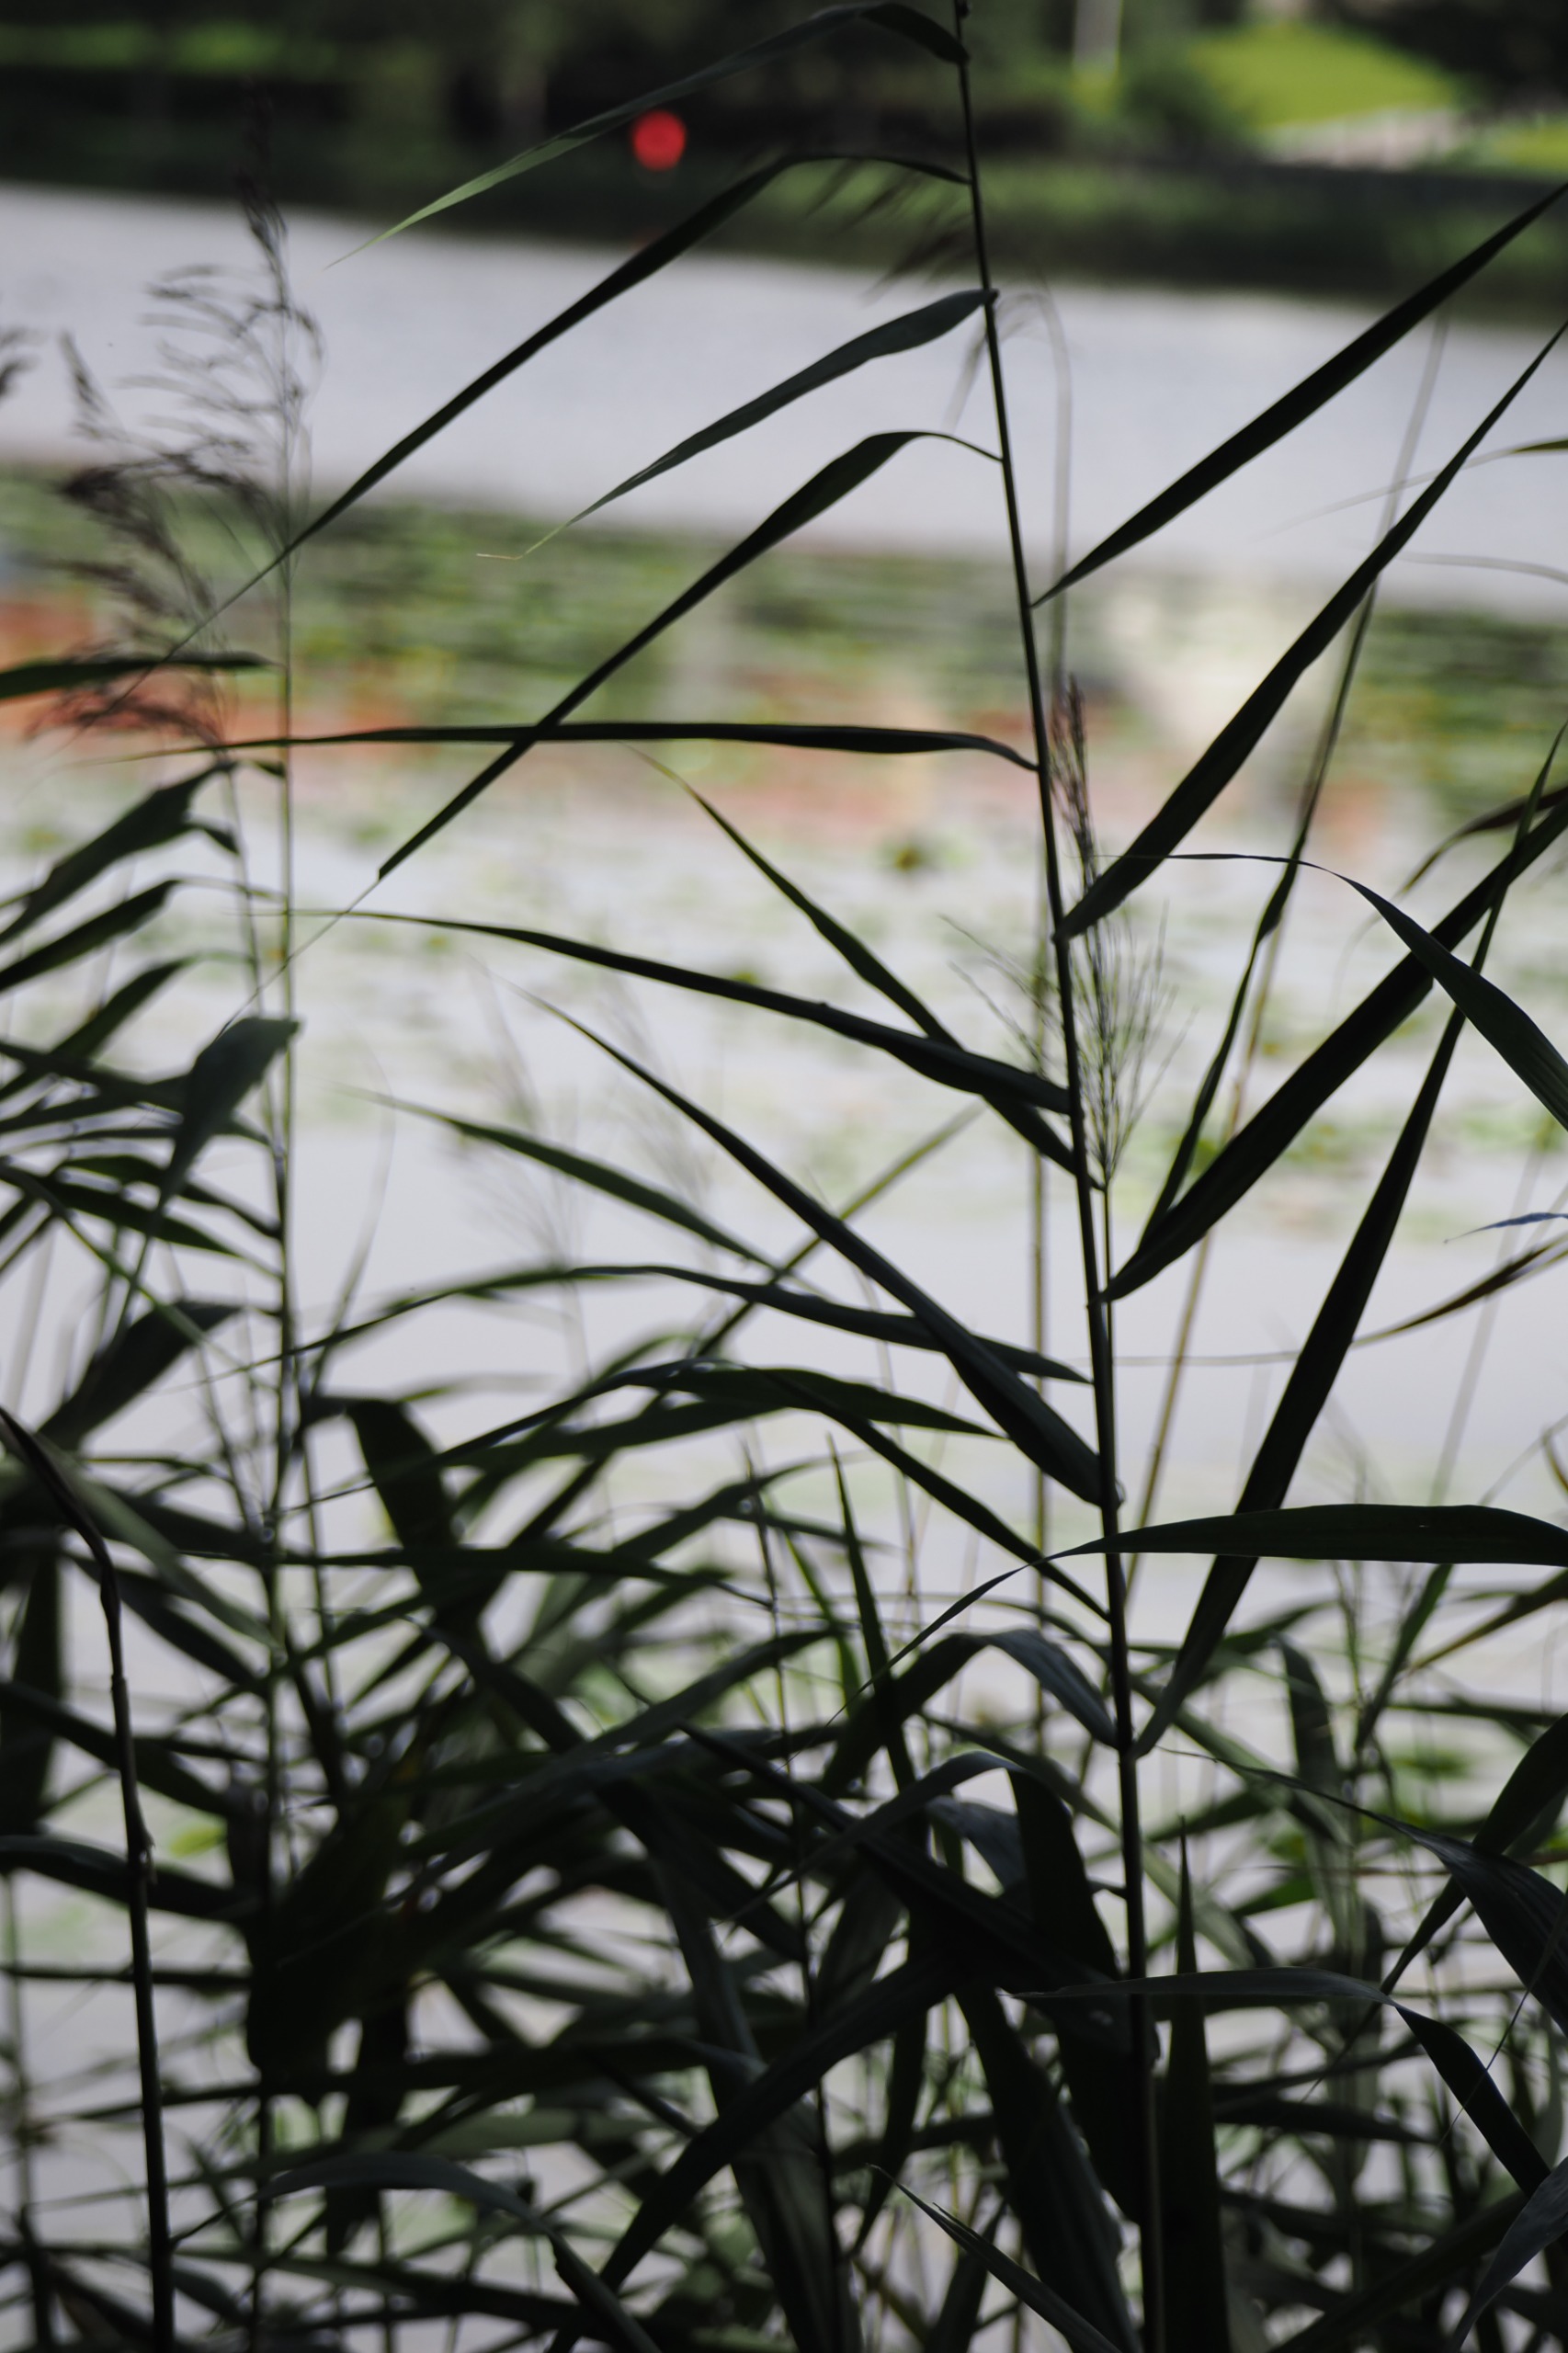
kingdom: Plantae
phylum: Tracheophyta
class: Liliopsida
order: Poales
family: Poaceae
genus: Phragmites
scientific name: Phragmites australis
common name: Tagrør
